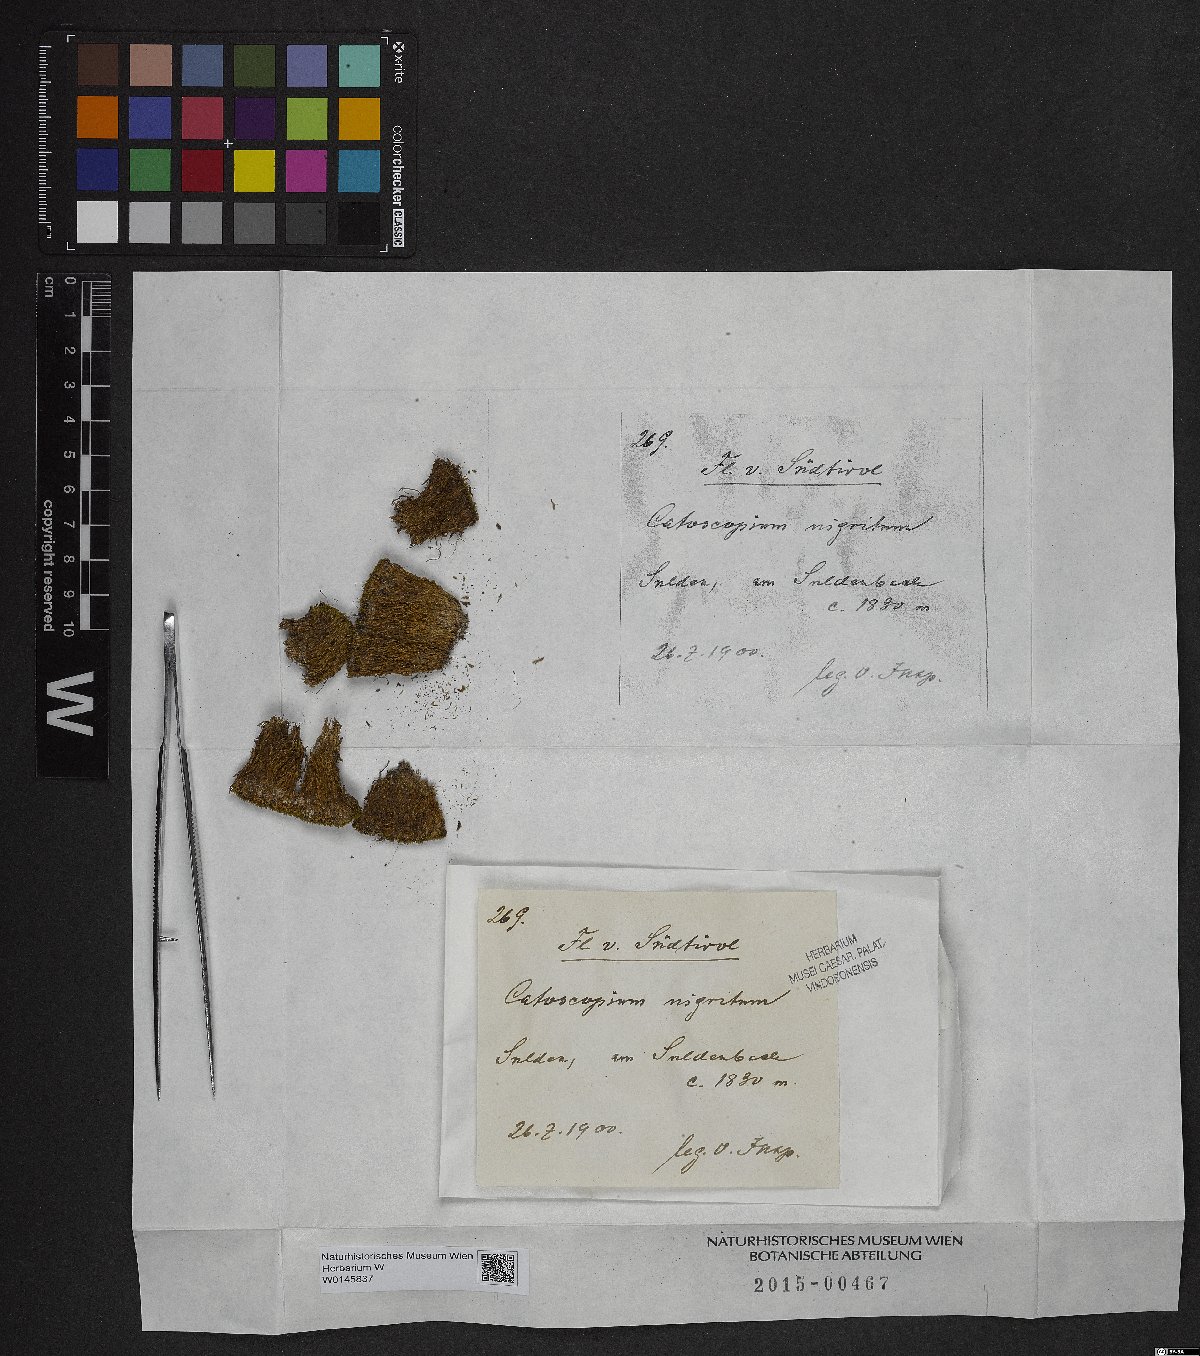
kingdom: Plantae
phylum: Bryophyta
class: Bryopsida
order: Catoscopiales
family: Catoscopiaceae
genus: Catoscopium
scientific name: Catoscopium nigritum
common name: Black golf club moss
